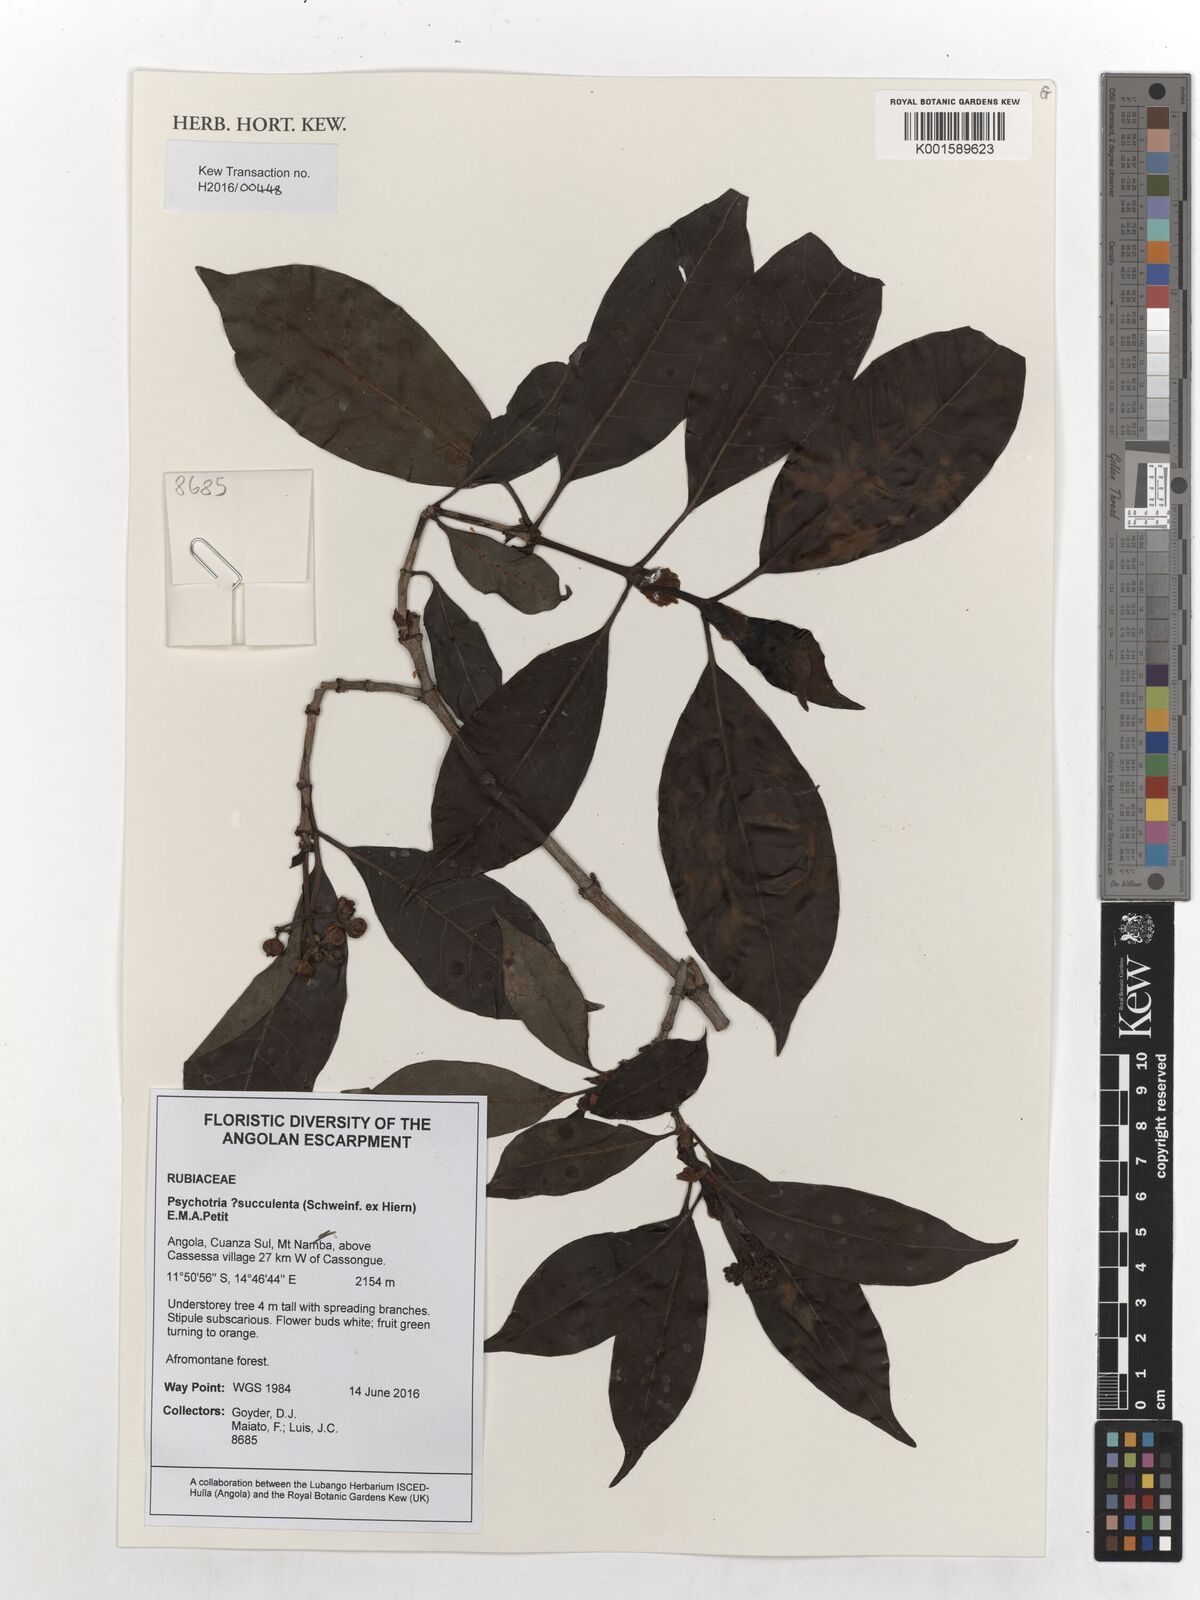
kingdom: Plantae
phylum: Tracheophyta
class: Magnoliopsida
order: Gentianales
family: Rubiaceae
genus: Psychotria
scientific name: Psychotria succulenta
